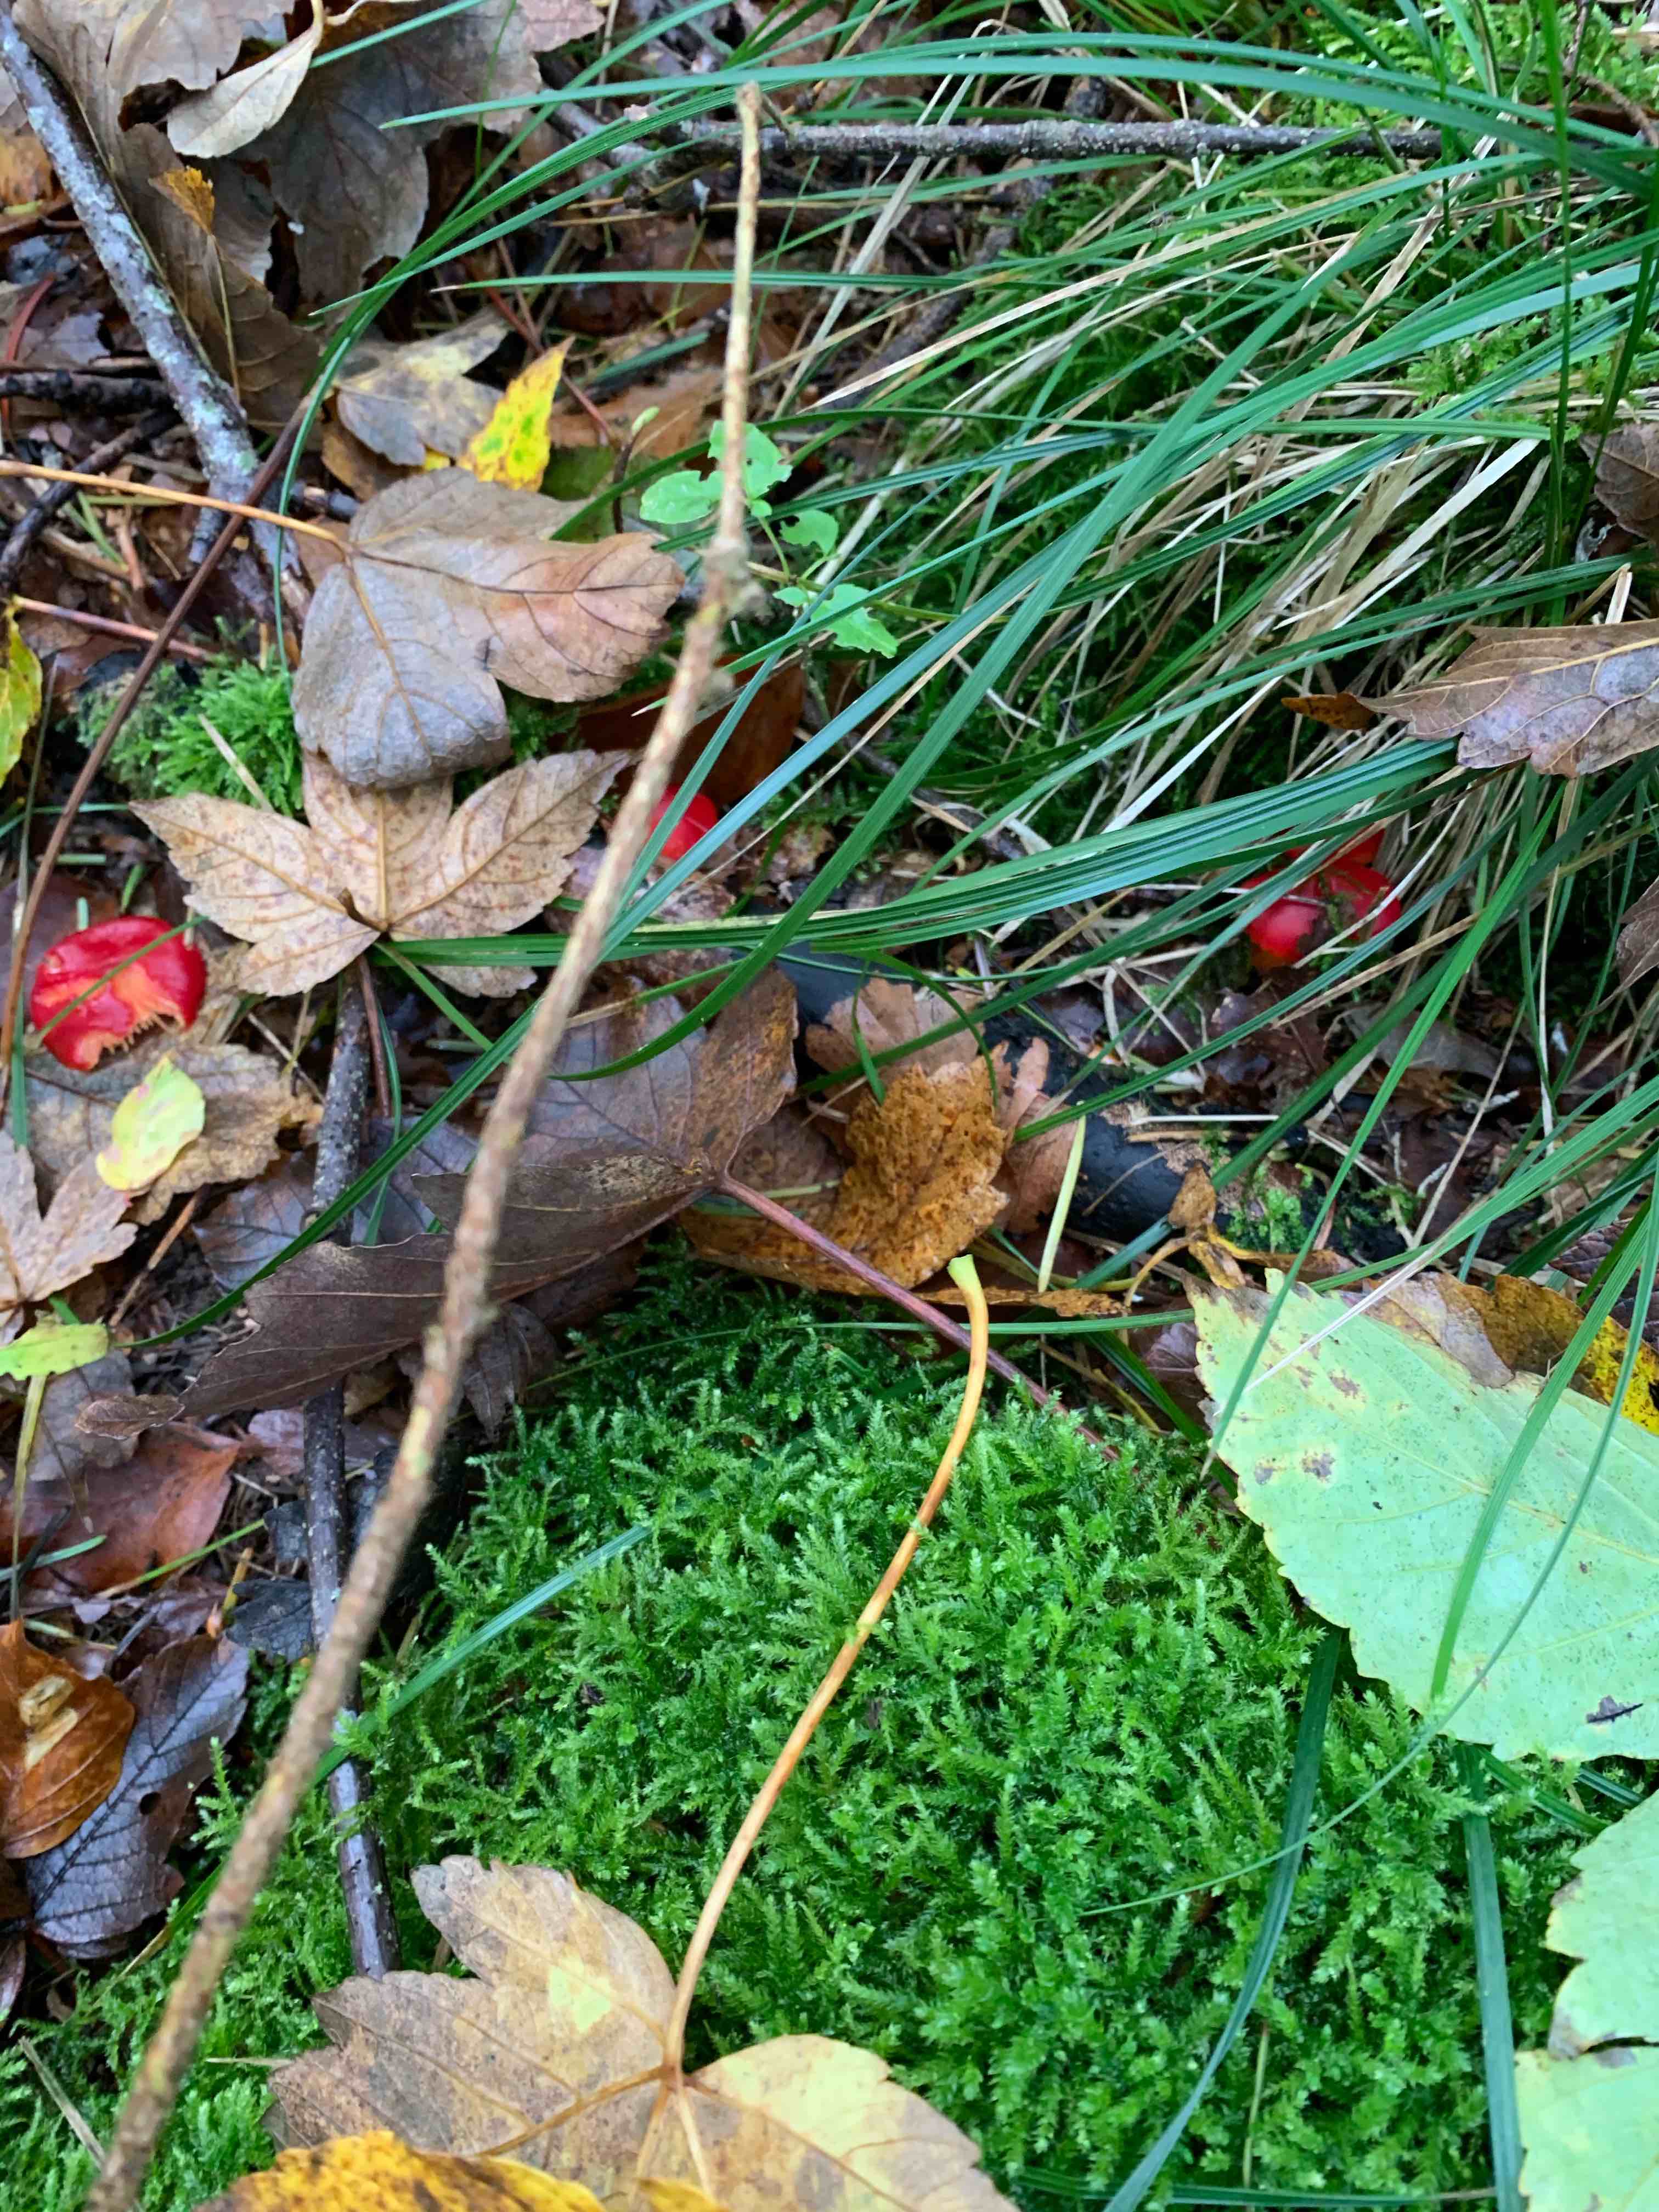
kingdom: Fungi
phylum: Basidiomycota
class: Agaricomycetes
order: Agaricales
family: Hygrophoraceae
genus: Hygrocybe
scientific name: Hygrocybe coccinea
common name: cinnober-vokshat
